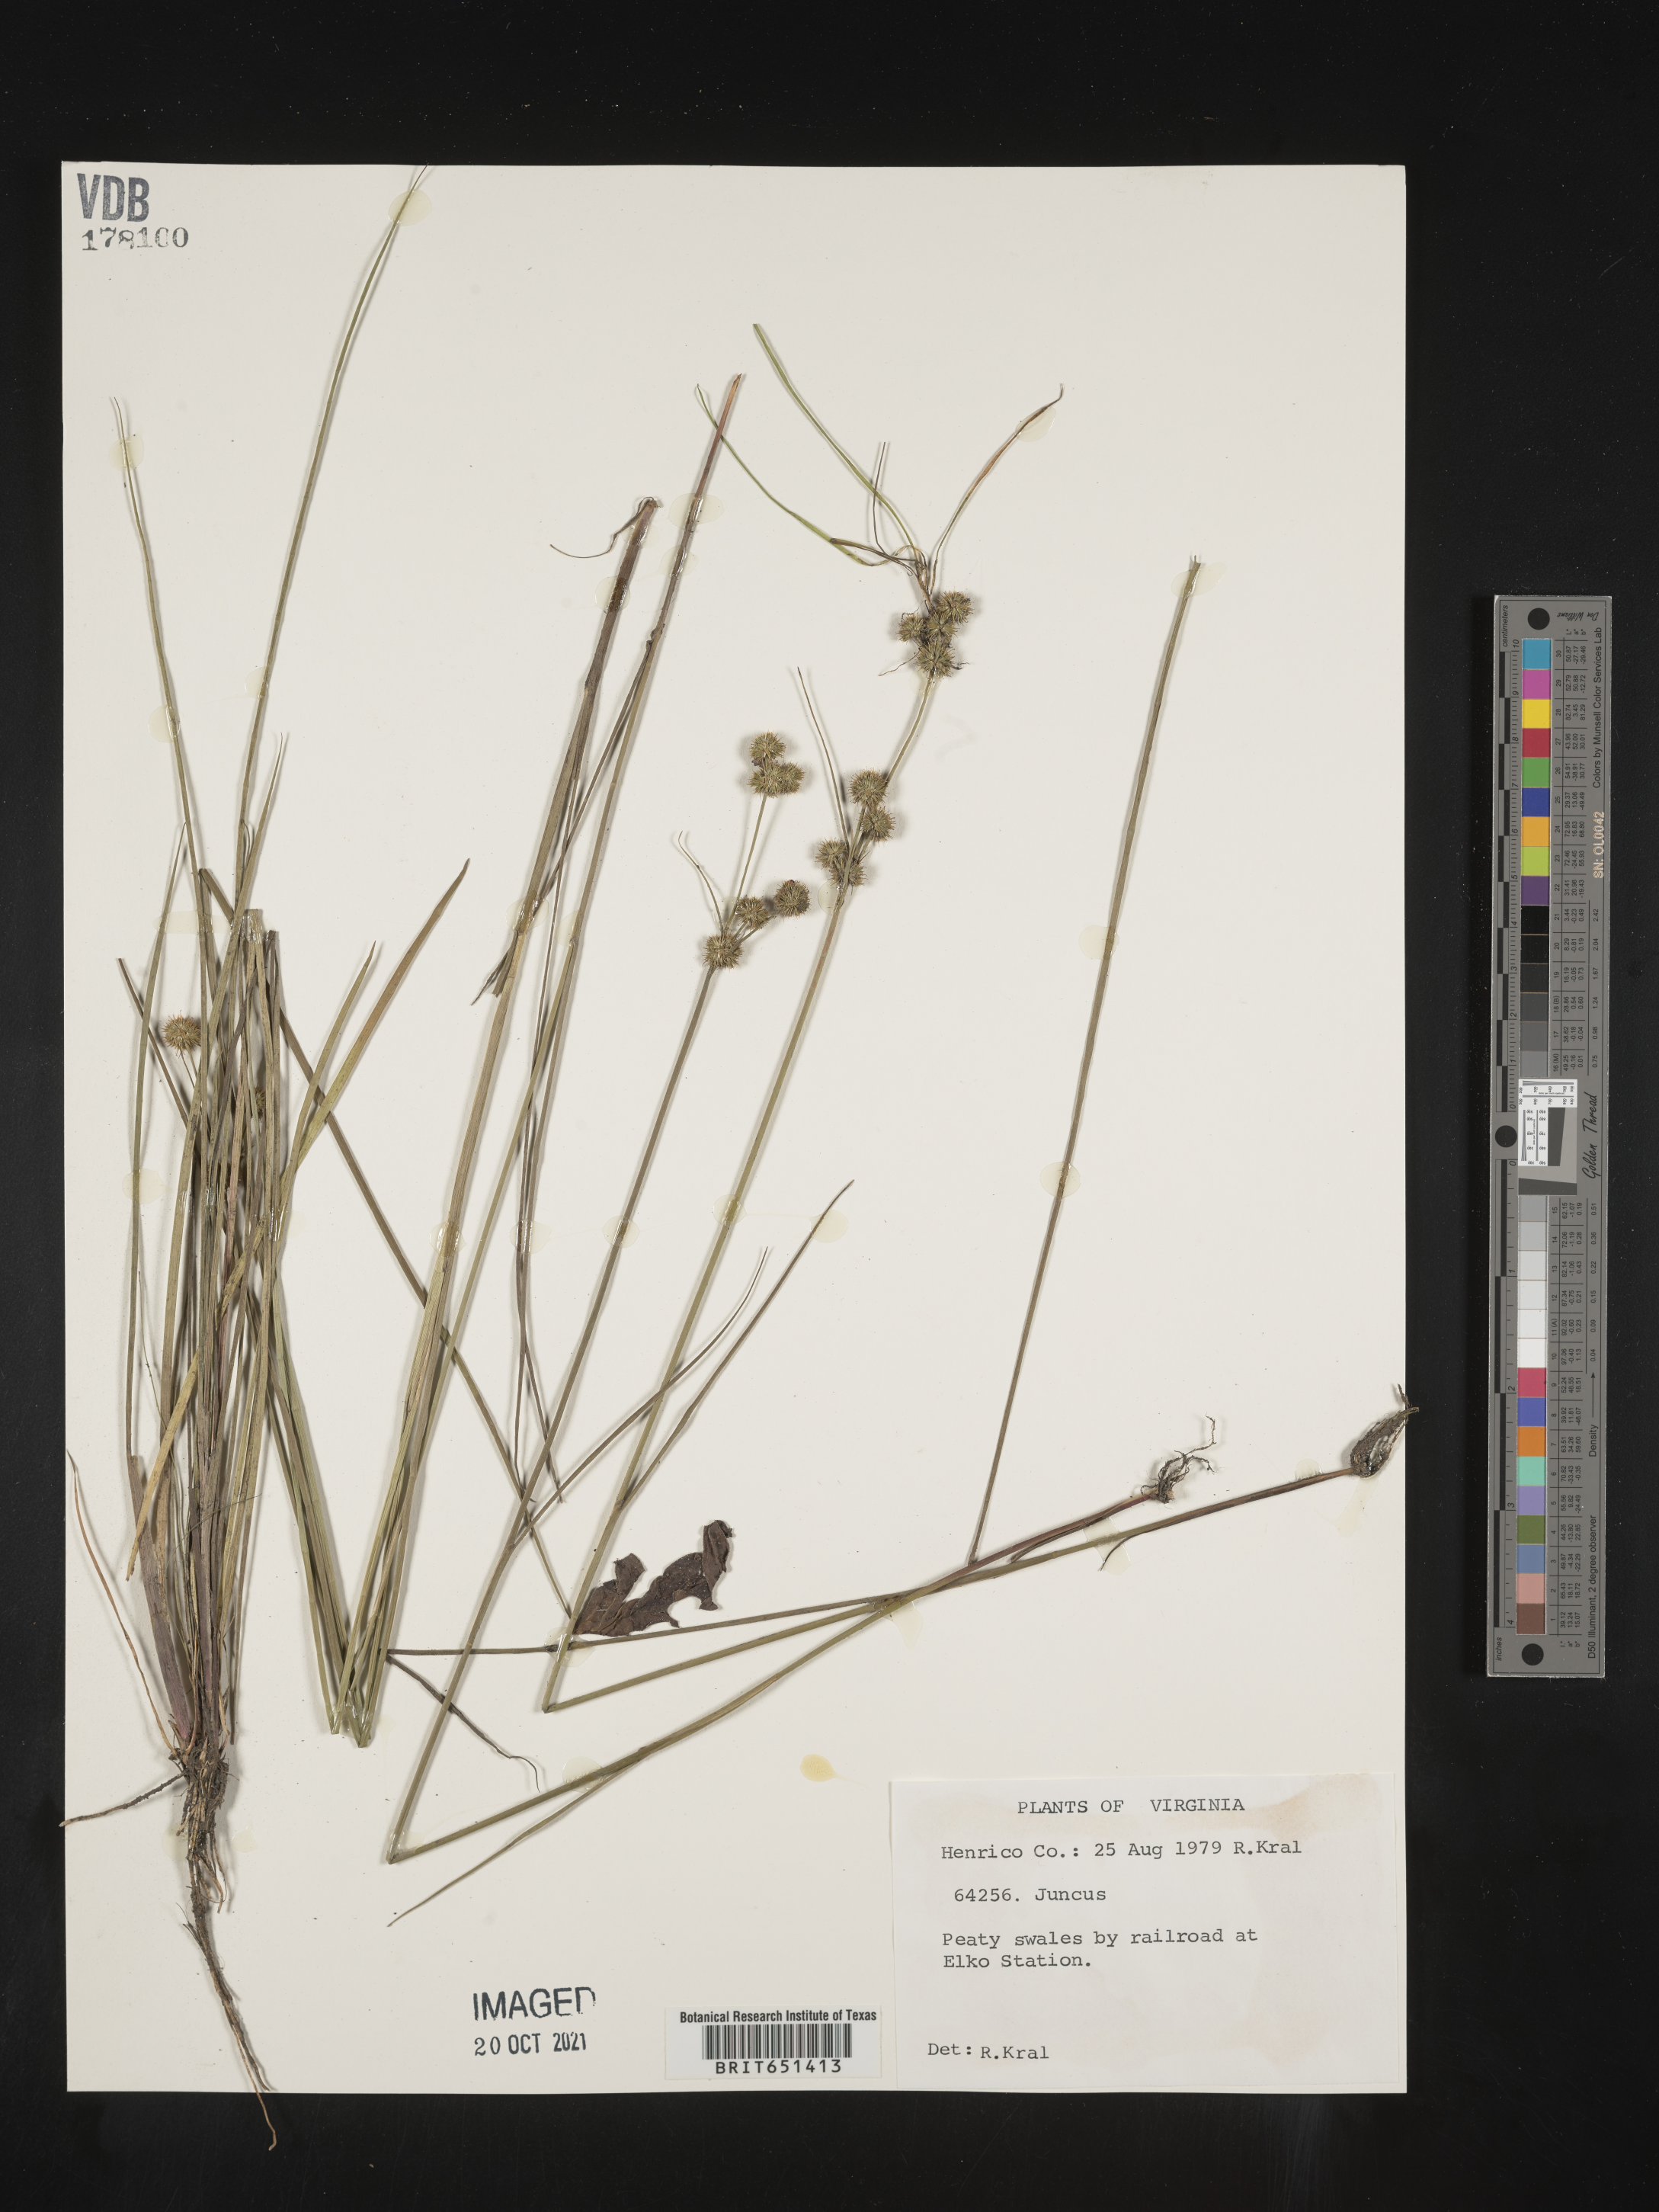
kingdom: Plantae
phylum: Tracheophyta
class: Liliopsida
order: Poales
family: Juncaceae
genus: Juncus
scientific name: Juncus
